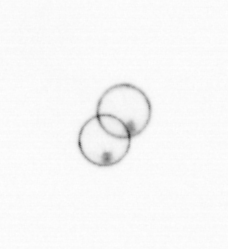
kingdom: Chromista
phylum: Myzozoa
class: Dinophyceae
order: Noctilucales
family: Noctilucaceae
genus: Noctiluca
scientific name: Noctiluca scintillans
